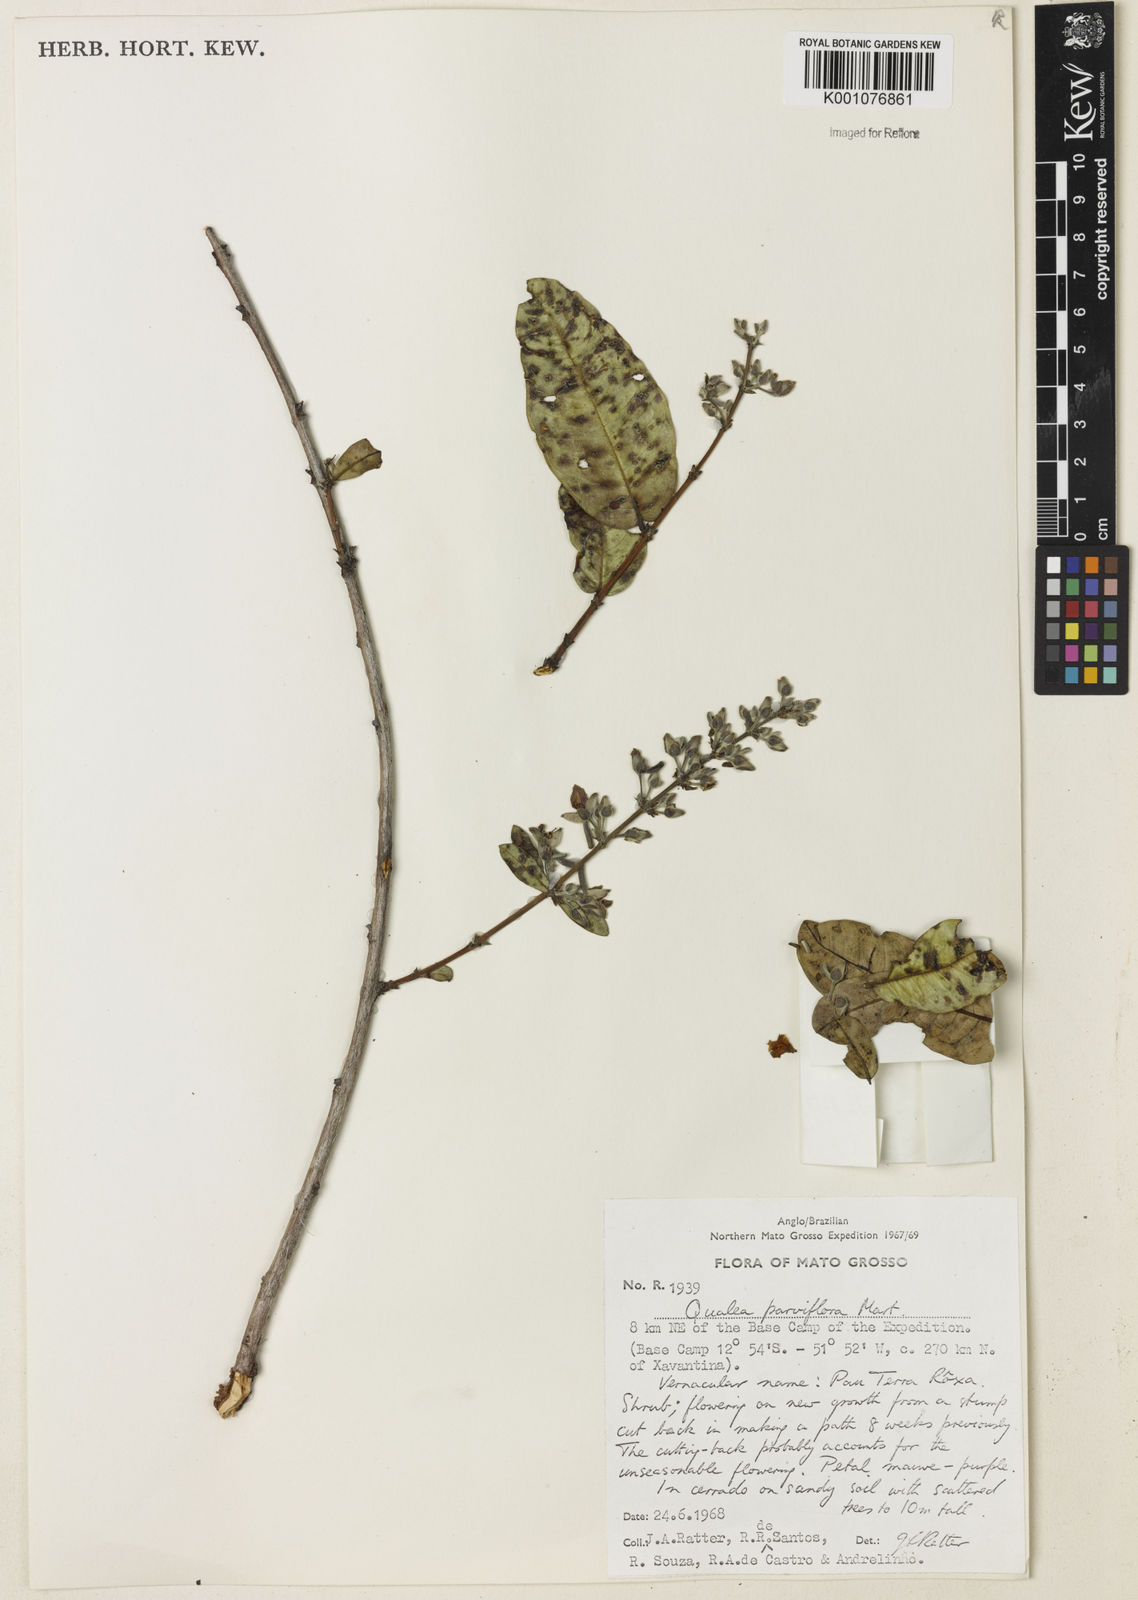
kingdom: Plantae
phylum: Tracheophyta
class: Magnoliopsida
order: Myrtales
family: Vochysiaceae
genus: Qualea
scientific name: Qualea parviflora
